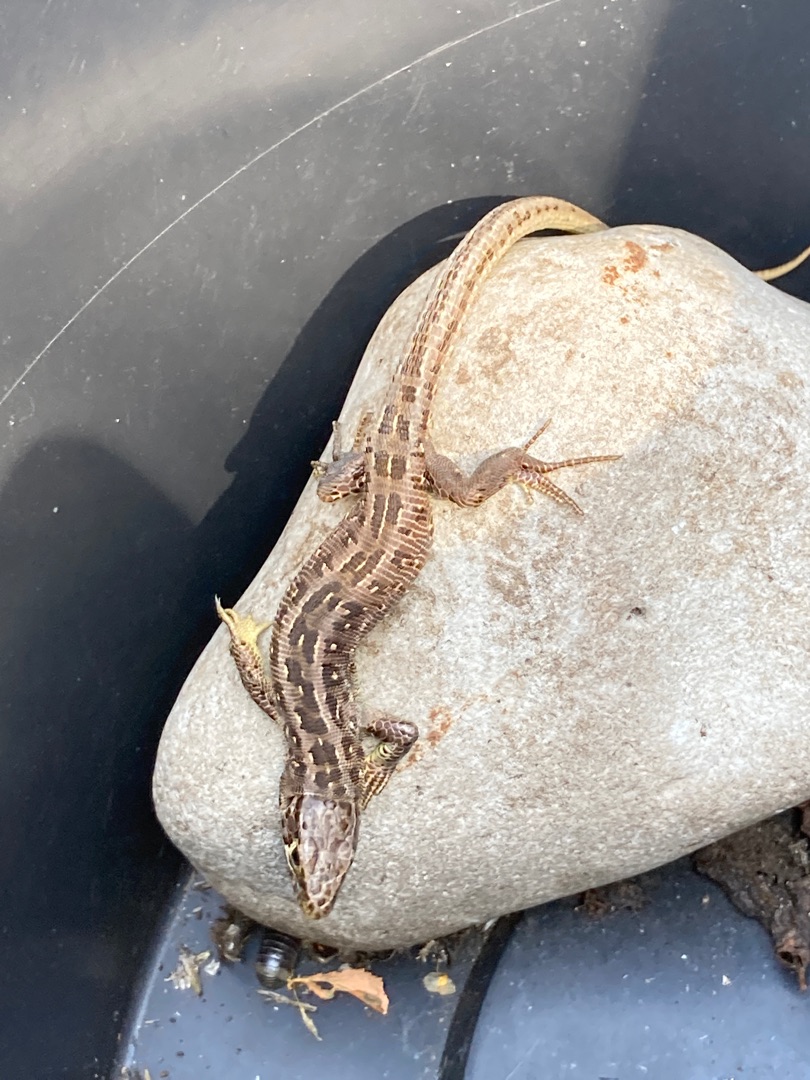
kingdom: Animalia
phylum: Chordata
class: Squamata
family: Lacertidae
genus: Lacerta
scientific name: Lacerta agilis
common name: Markfirben
